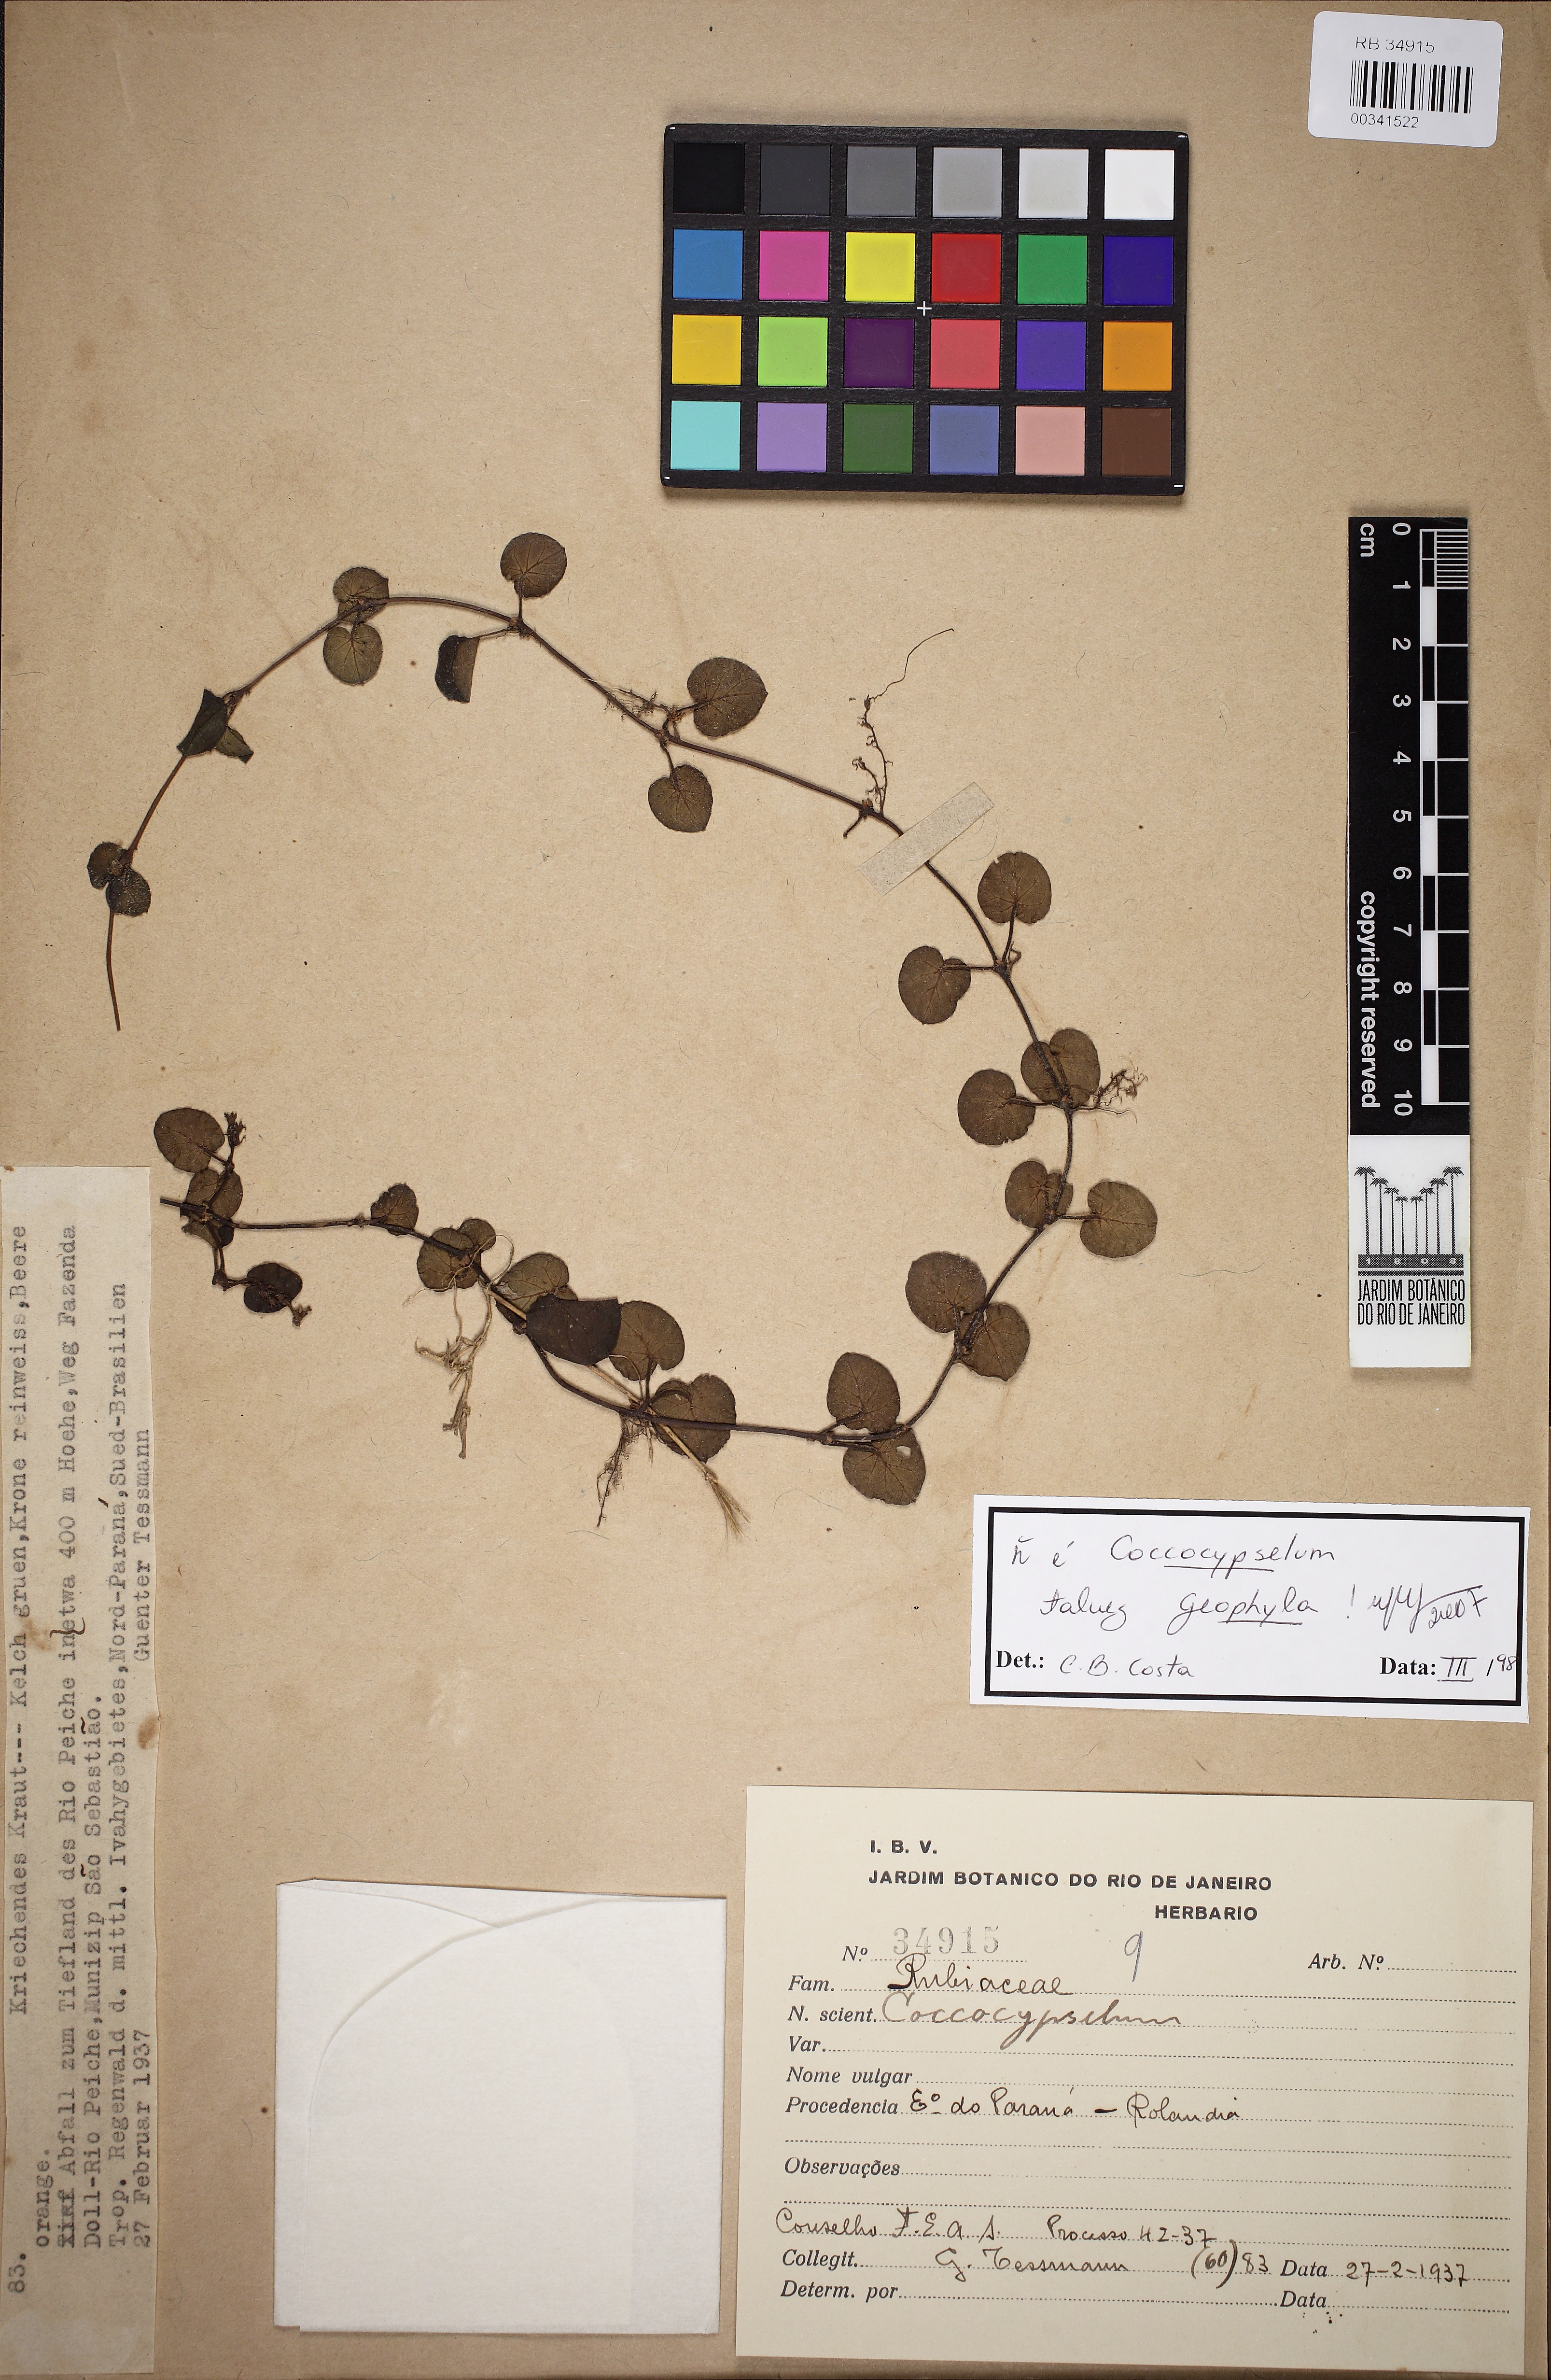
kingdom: Plantae
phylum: Tracheophyta
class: Magnoliopsida
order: Gentianales
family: Rubiaceae
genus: Geophila
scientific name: Geophila
